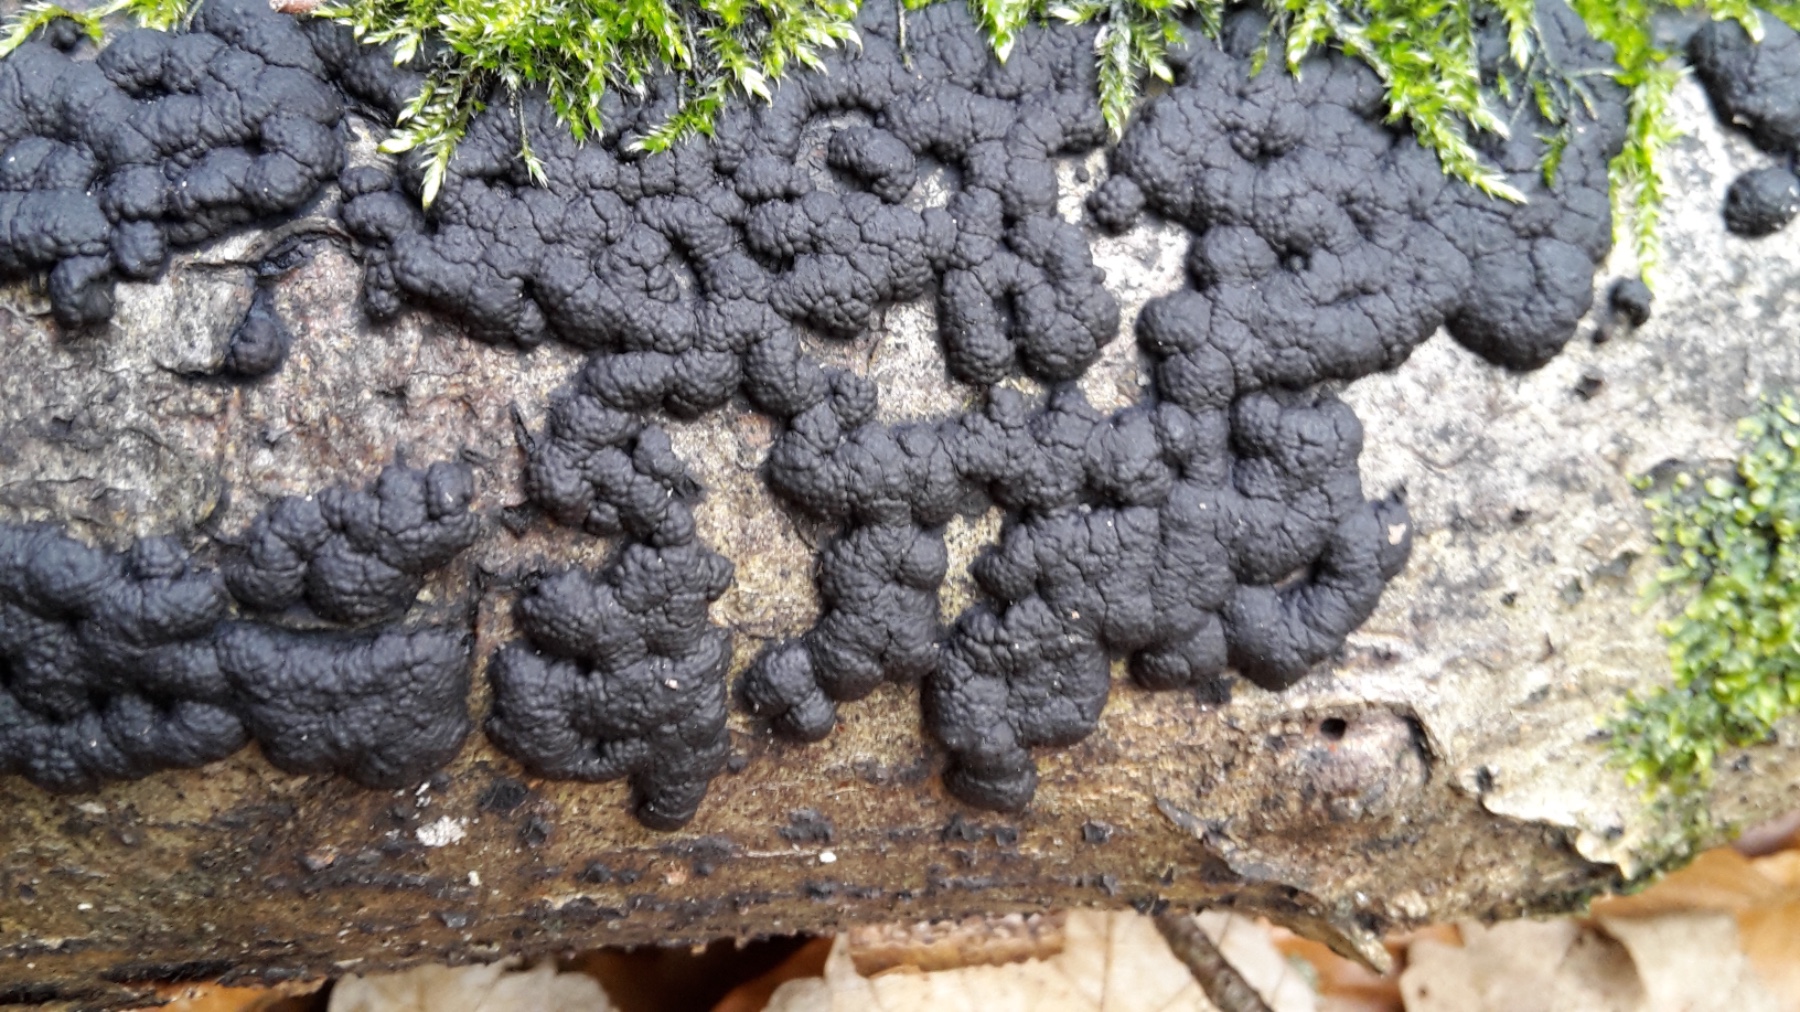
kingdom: Fungi
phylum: Ascomycota
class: Sordariomycetes
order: Xylariales
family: Hypoxylaceae
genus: Jackrogersella
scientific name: Jackrogersella cohaerens
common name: sammenflydende kulbær
